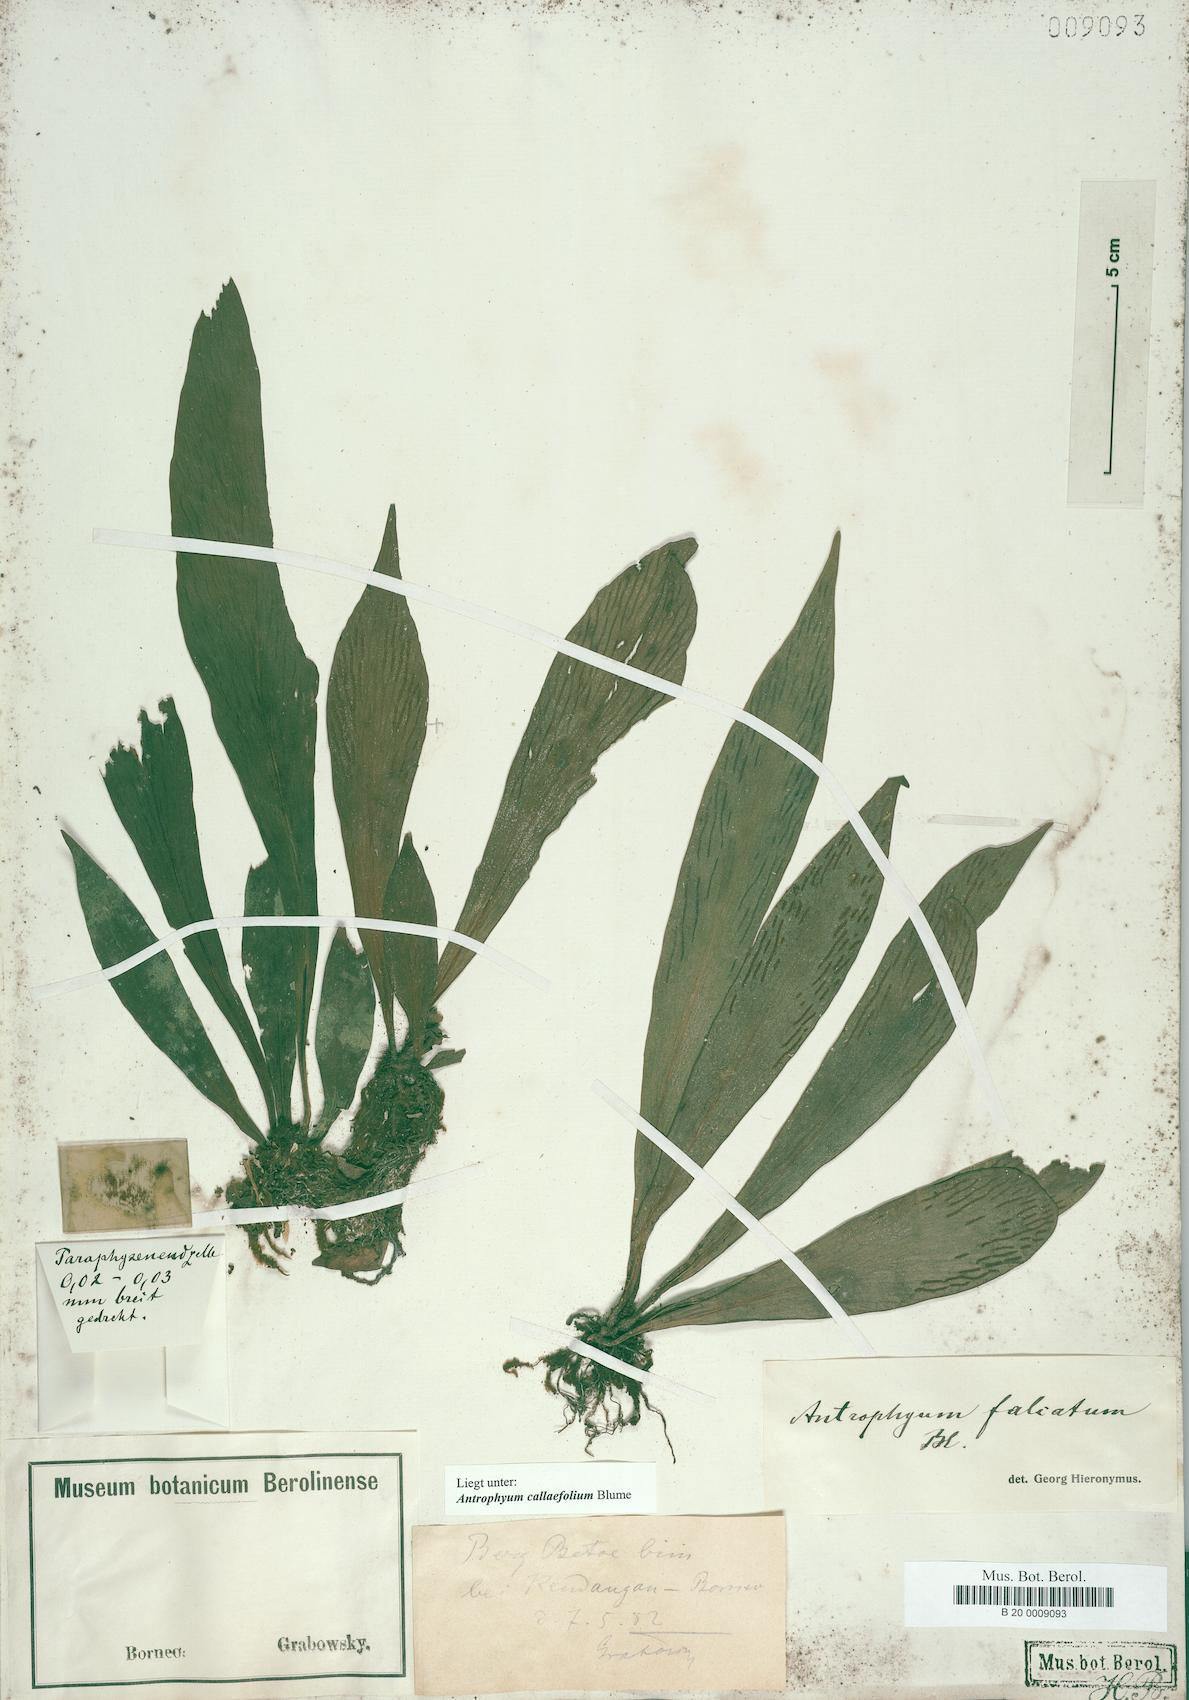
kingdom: Plantae
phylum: Tracheophyta
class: Polypodiopsida
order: Polypodiales
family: Pteridaceae
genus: Antrophyum
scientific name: Antrophyum callifolium
